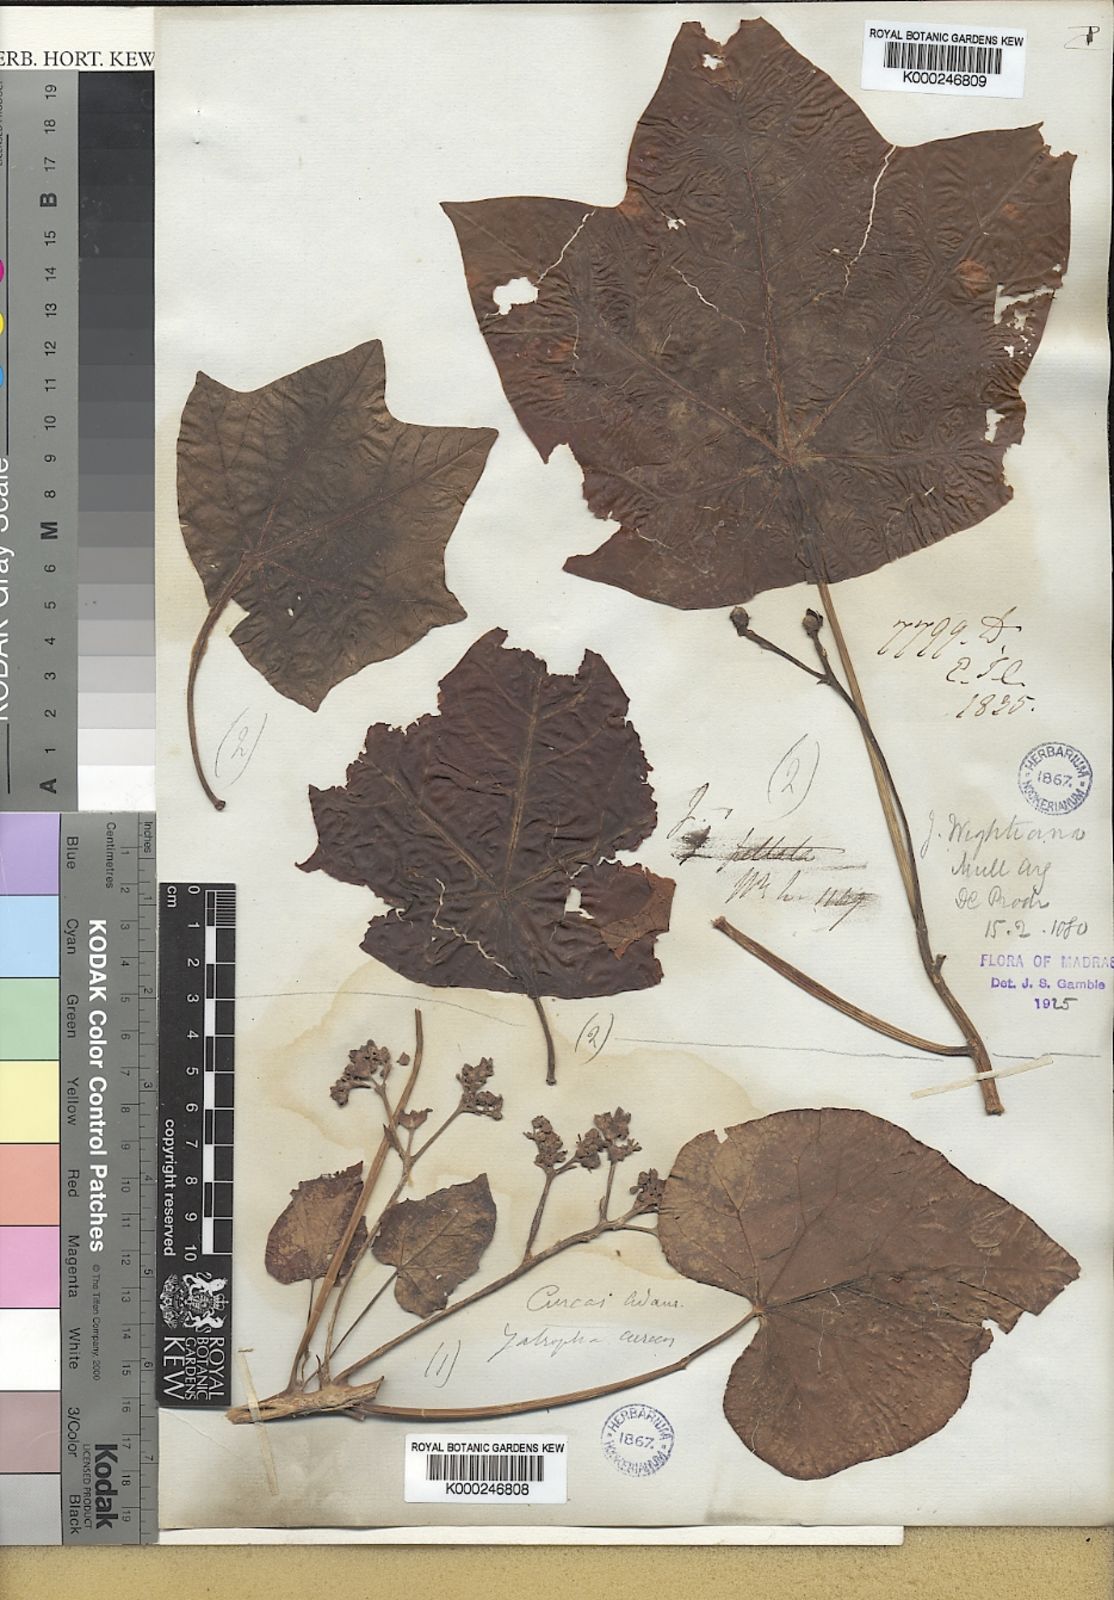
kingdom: Plantae
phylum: Tracheophyta
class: Magnoliopsida
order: Malpighiales
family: Euphorbiaceae
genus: Jatropha
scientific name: Jatropha
